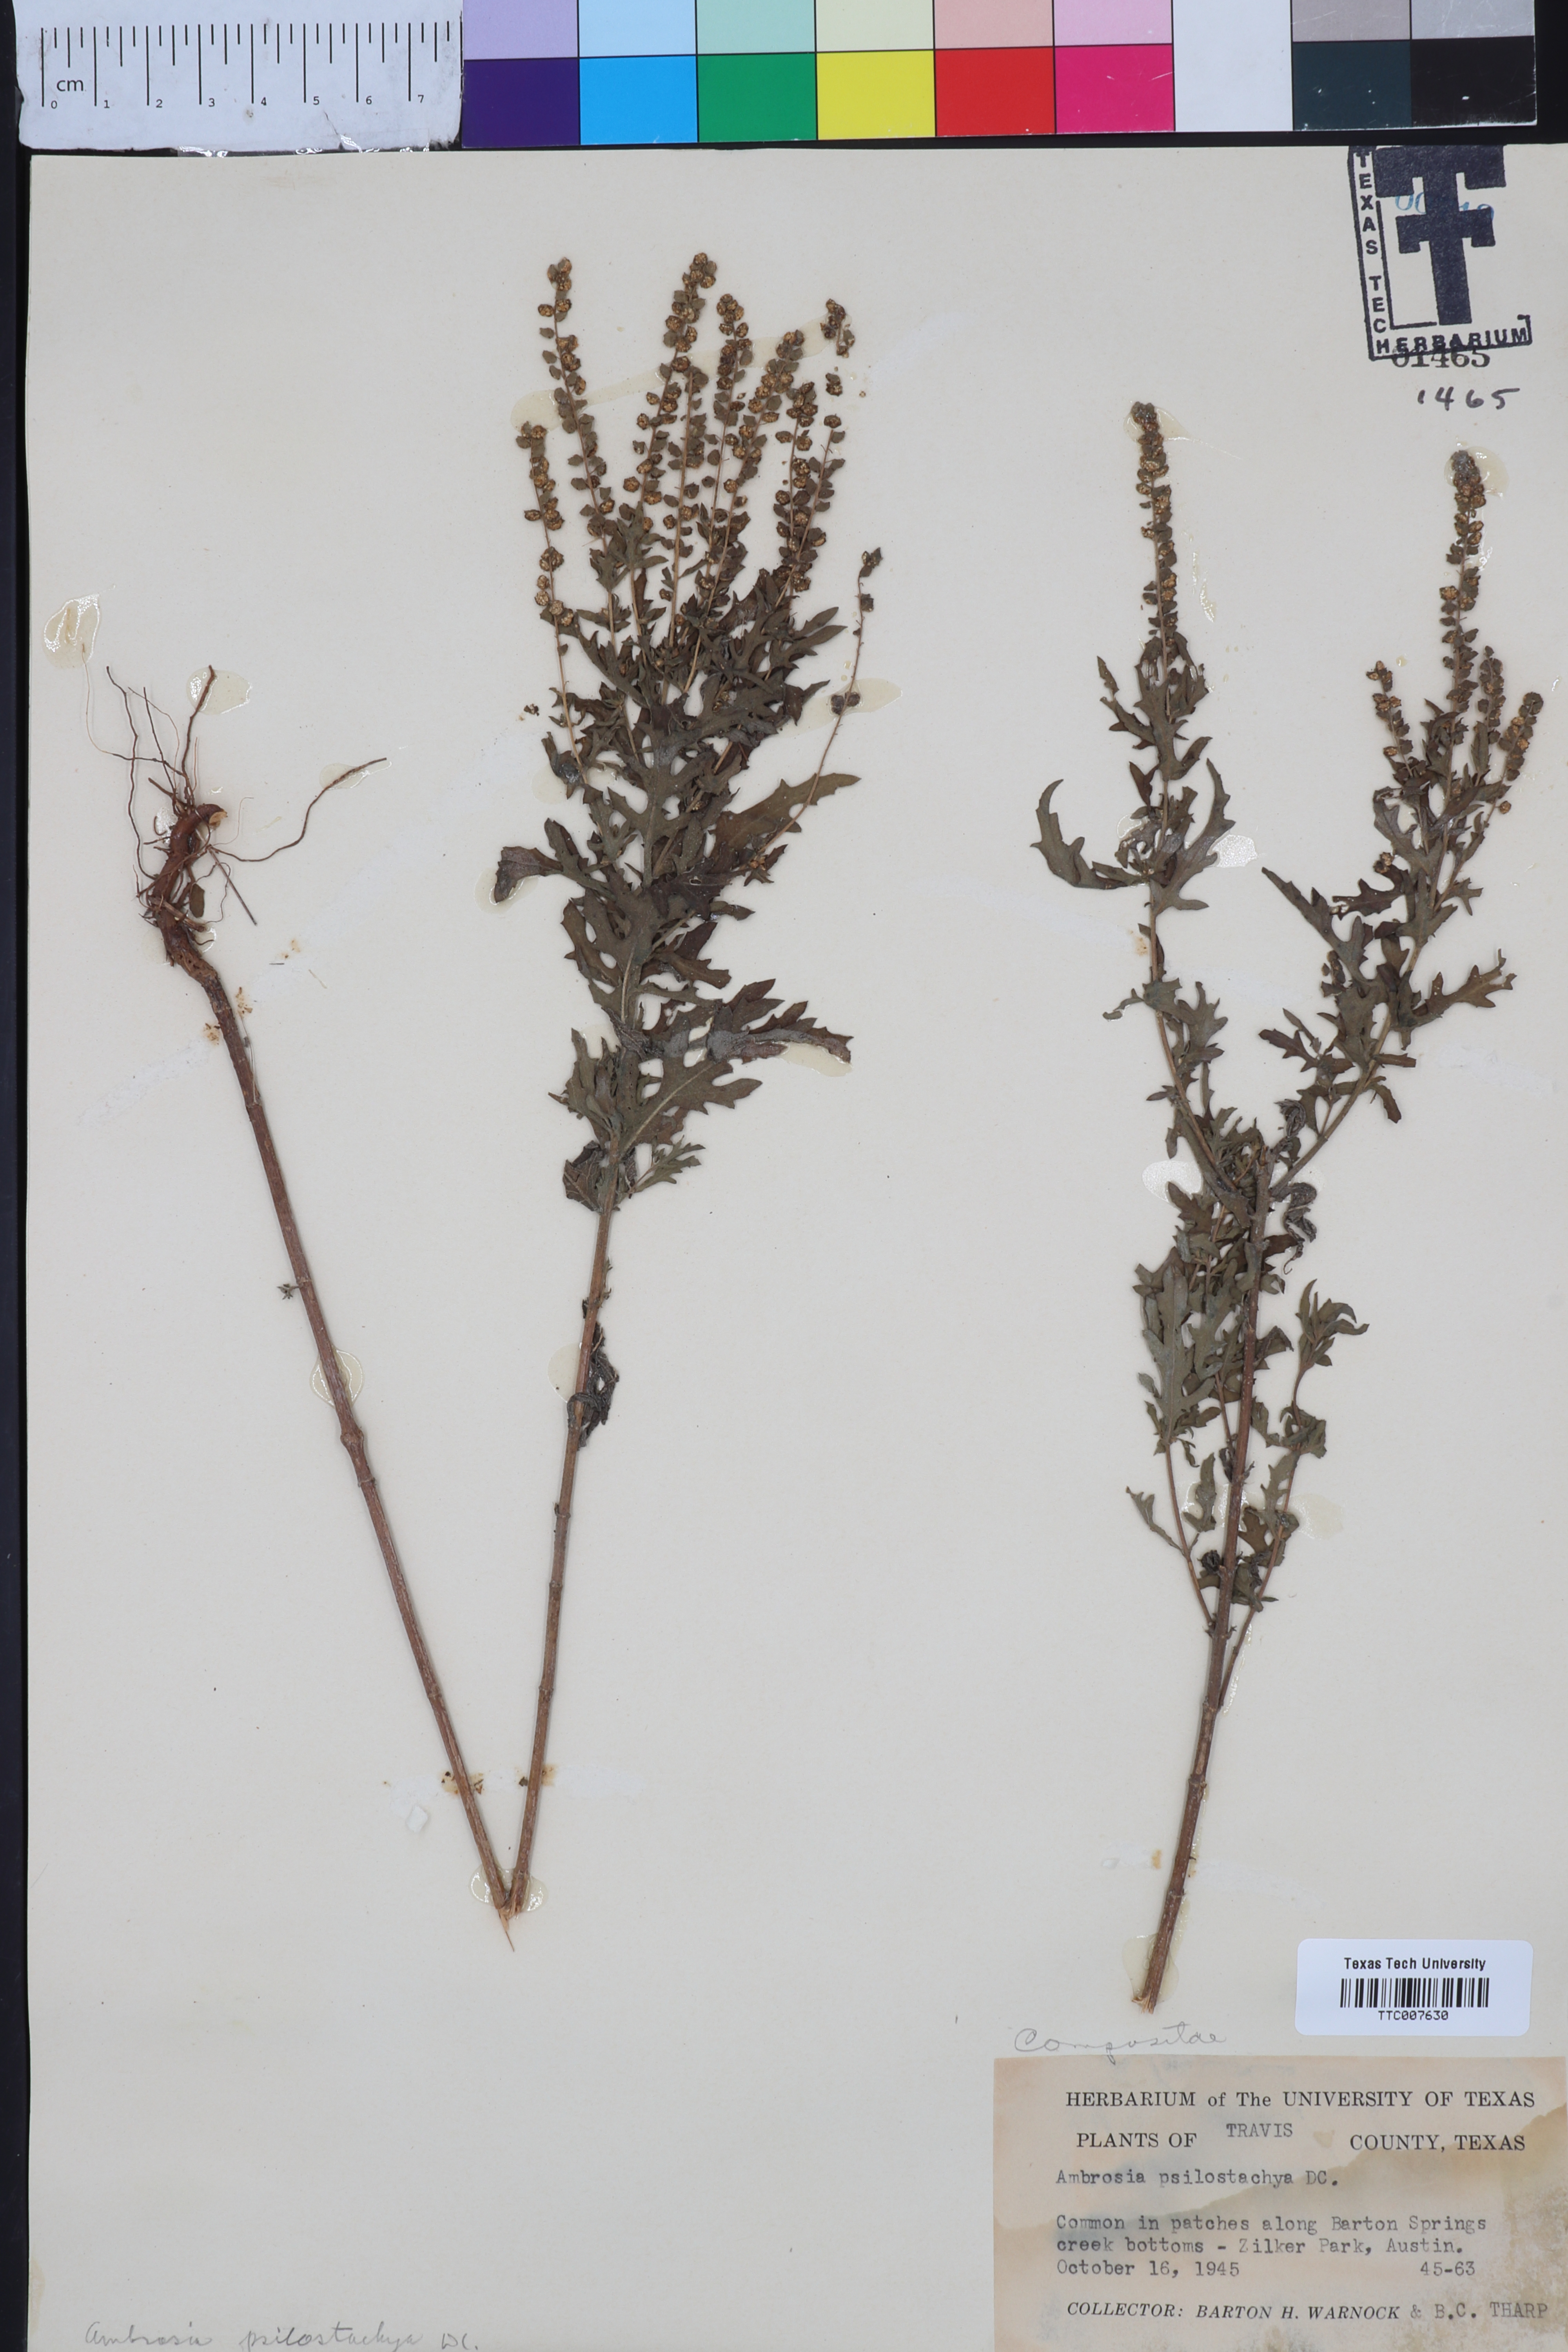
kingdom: Plantae
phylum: Tracheophyta
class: Magnoliopsida
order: Asterales
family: Asteraceae
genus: Ambrosia
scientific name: Ambrosia psilostachya
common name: Perennial ragweed
